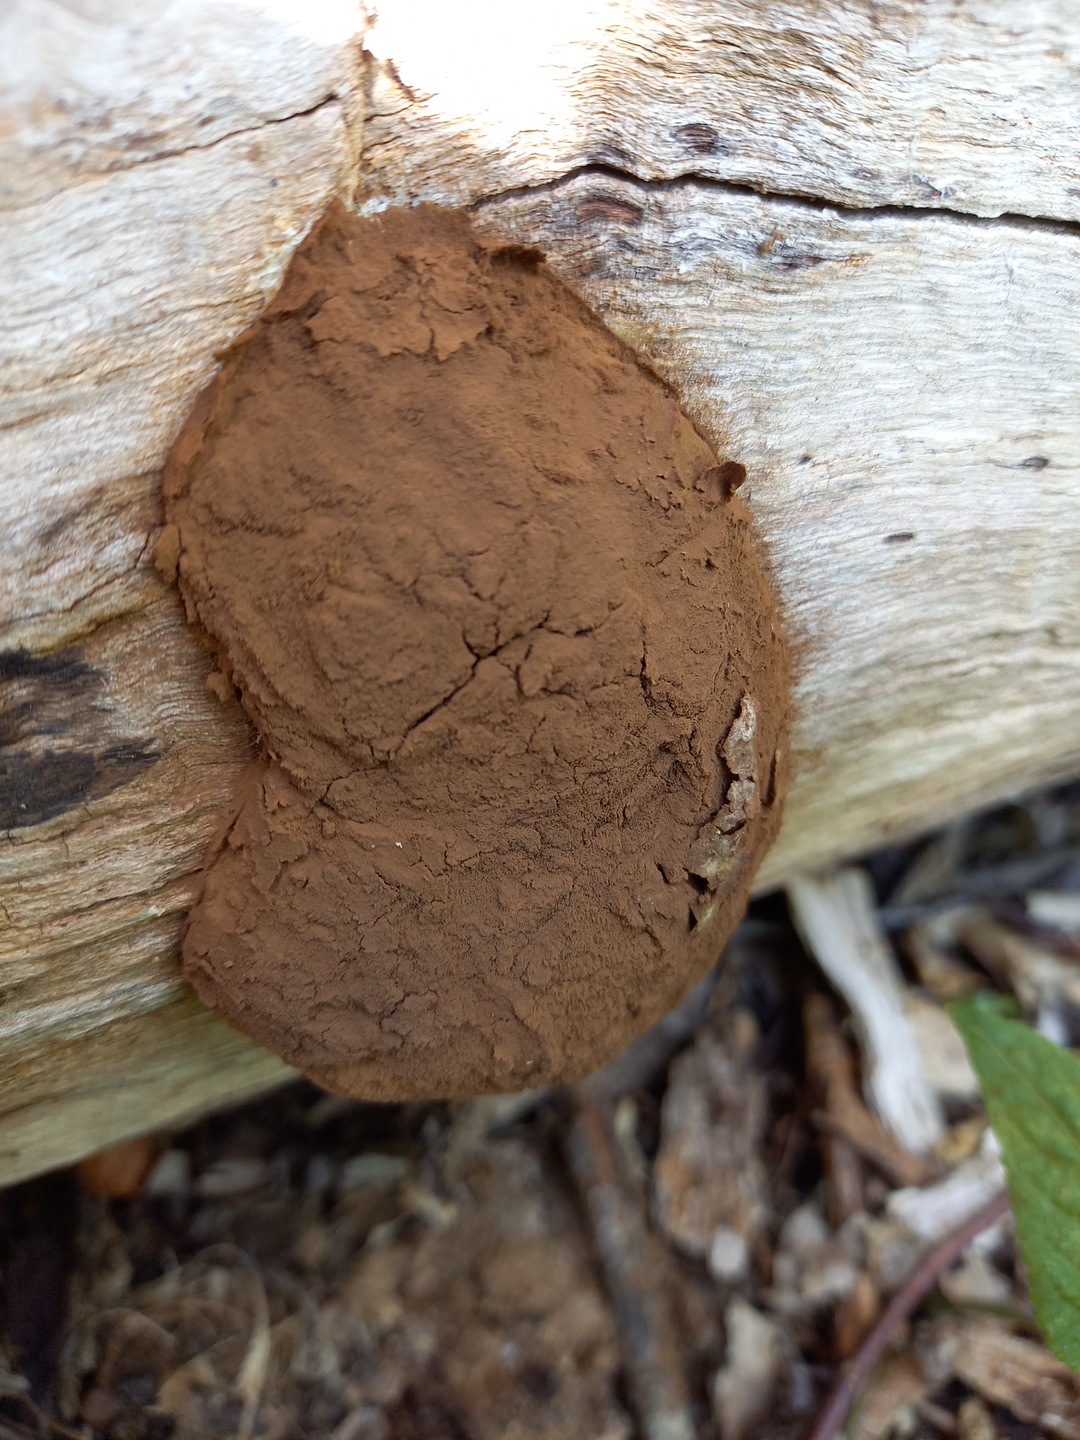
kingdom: Protozoa
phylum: Mycetozoa
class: Myxomycetes
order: Cribrariales
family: Tubiferaceae
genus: Reticularia
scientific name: Reticularia lycoperdon
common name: skinnende støvpude
